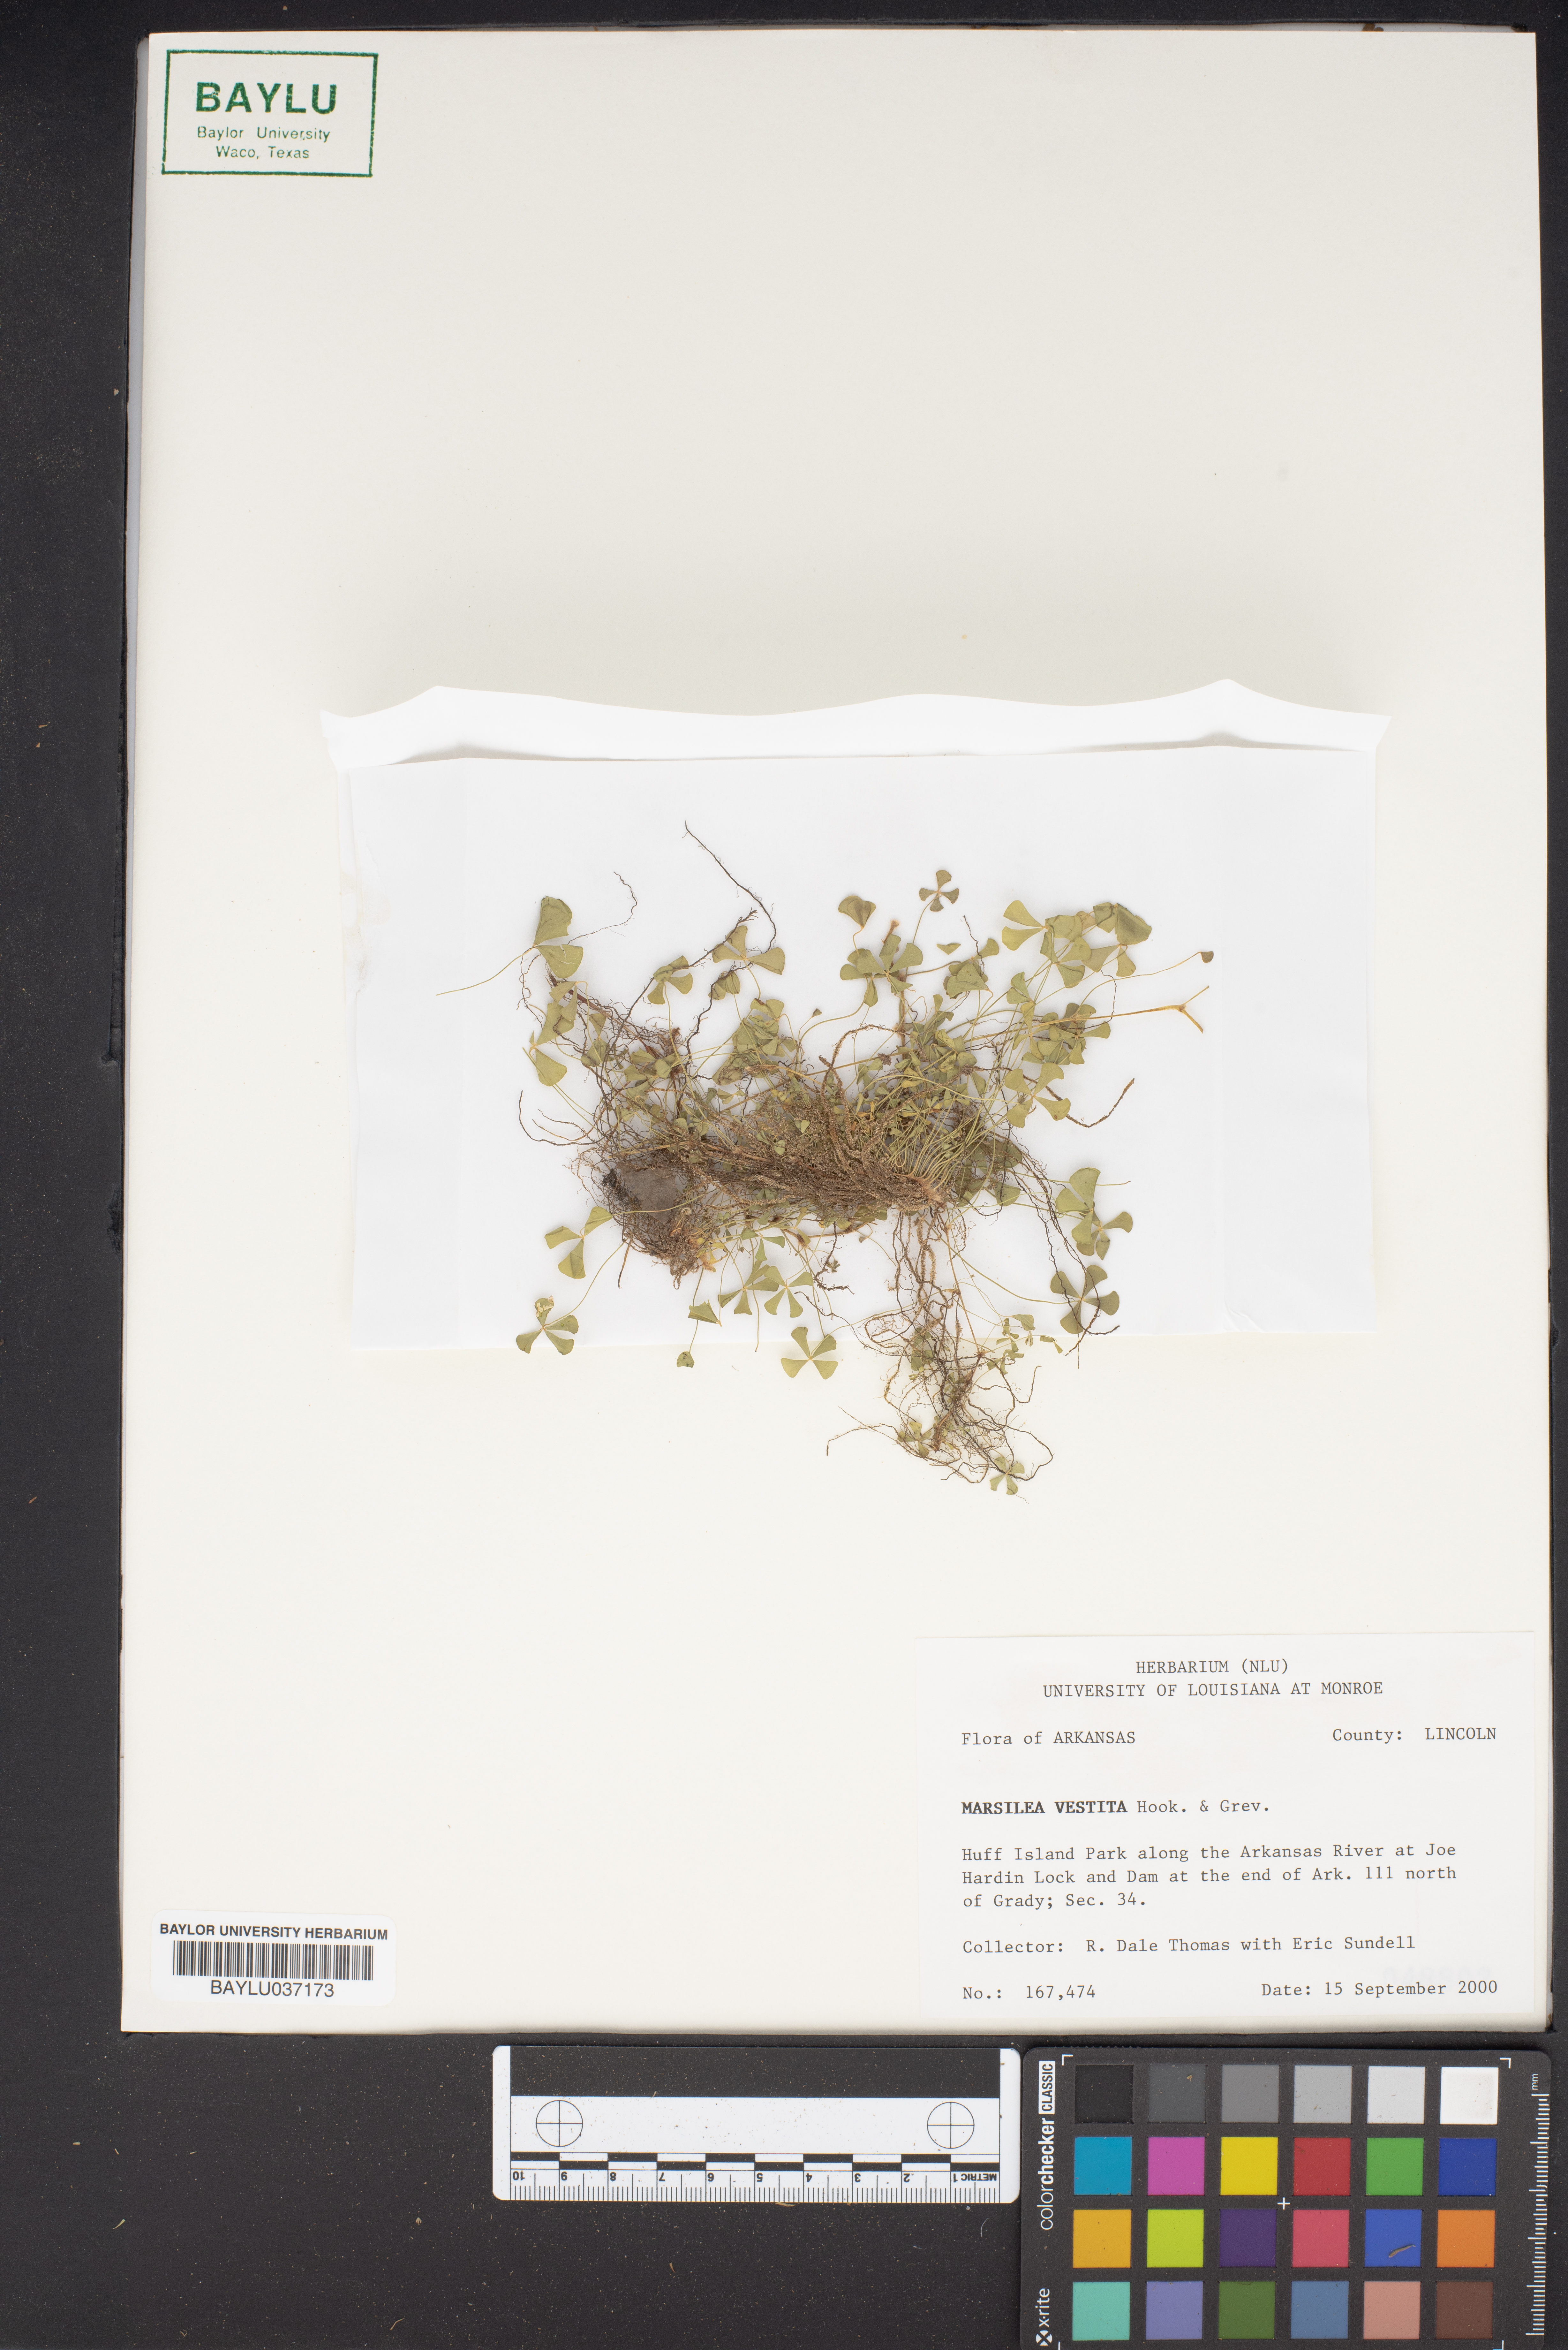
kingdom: Plantae
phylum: Tracheophyta
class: Polypodiopsida
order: Salviniales
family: Marsileaceae
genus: Marsilea
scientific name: Marsilea vestita
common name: Hooked-pepperwort
